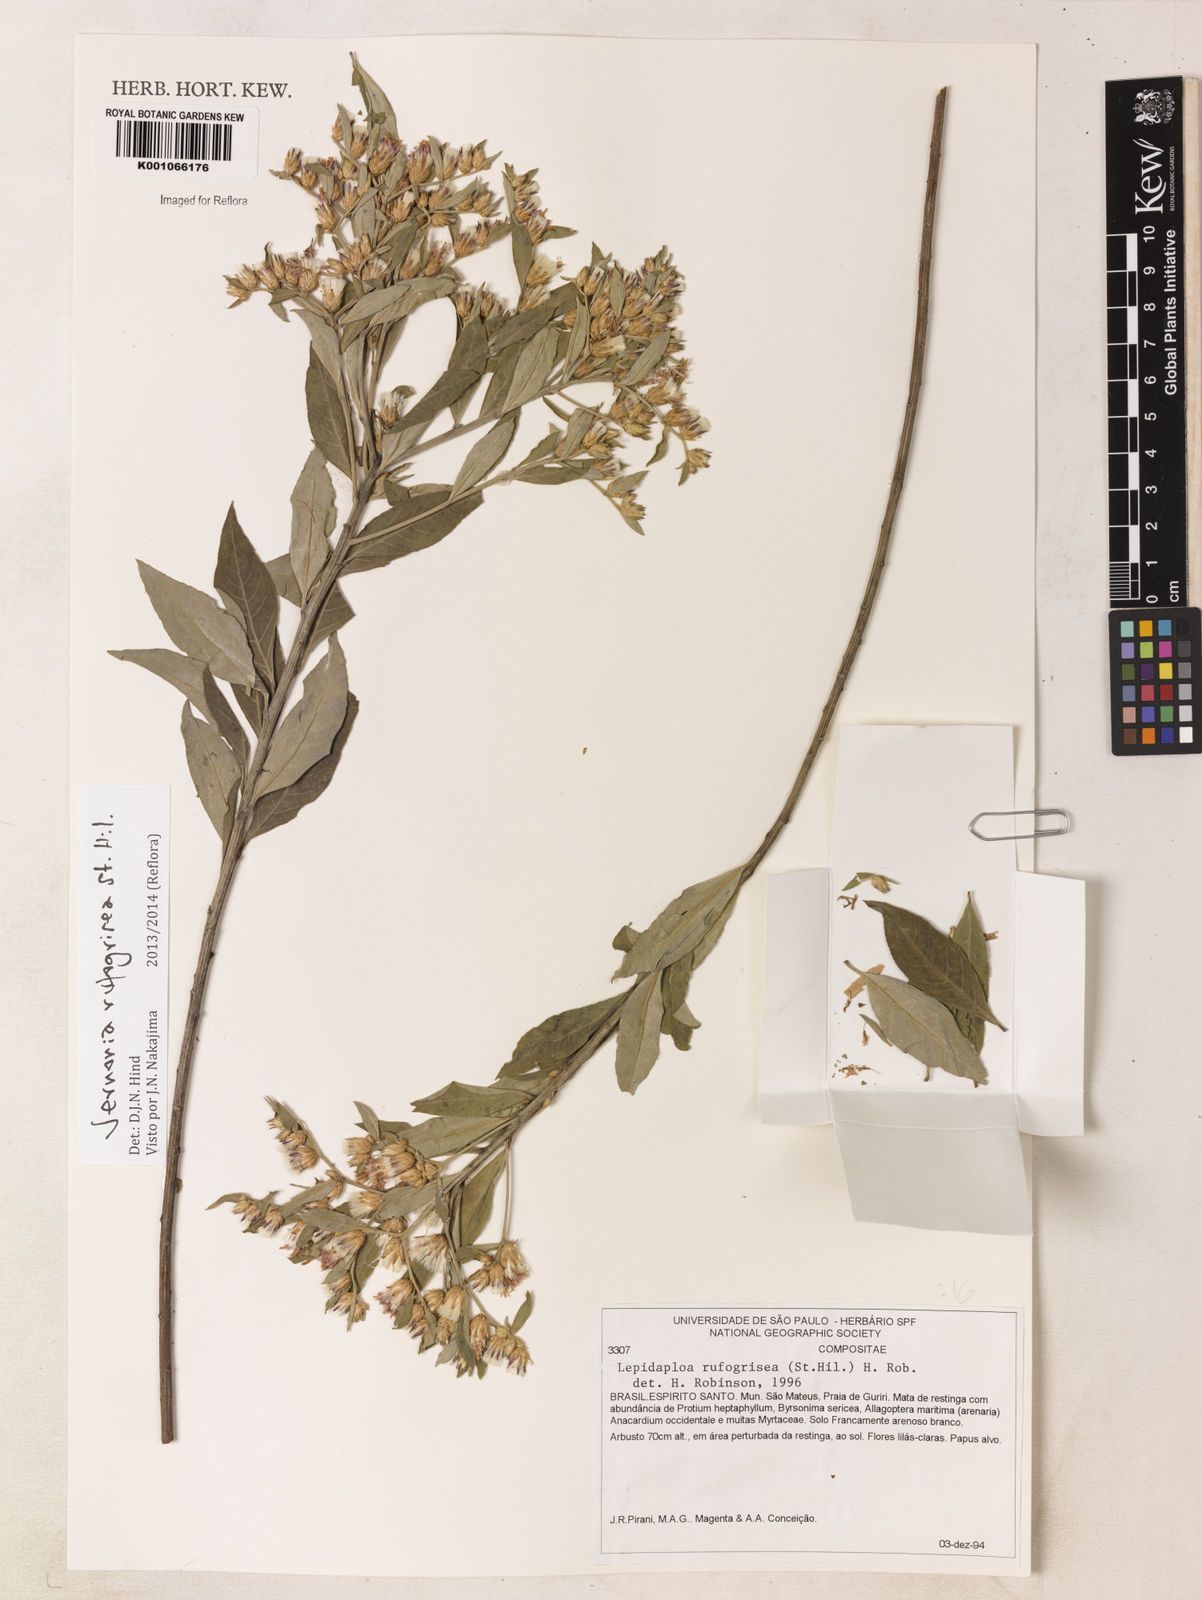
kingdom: Plantae
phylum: Tracheophyta
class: Magnoliopsida
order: Asterales
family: Asteraceae
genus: Lepidaploa
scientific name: Lepidaploa rufogrisea
